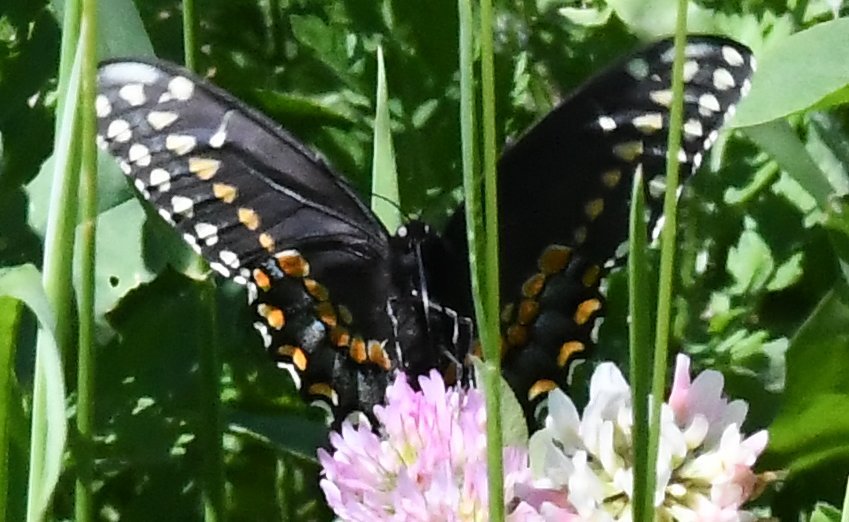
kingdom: Animalia
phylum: Arthropoda
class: Insecta
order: Lepidoptera
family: Papilionidae
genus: Papilio
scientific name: Papilio polyxenes
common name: Black Swallowtail
